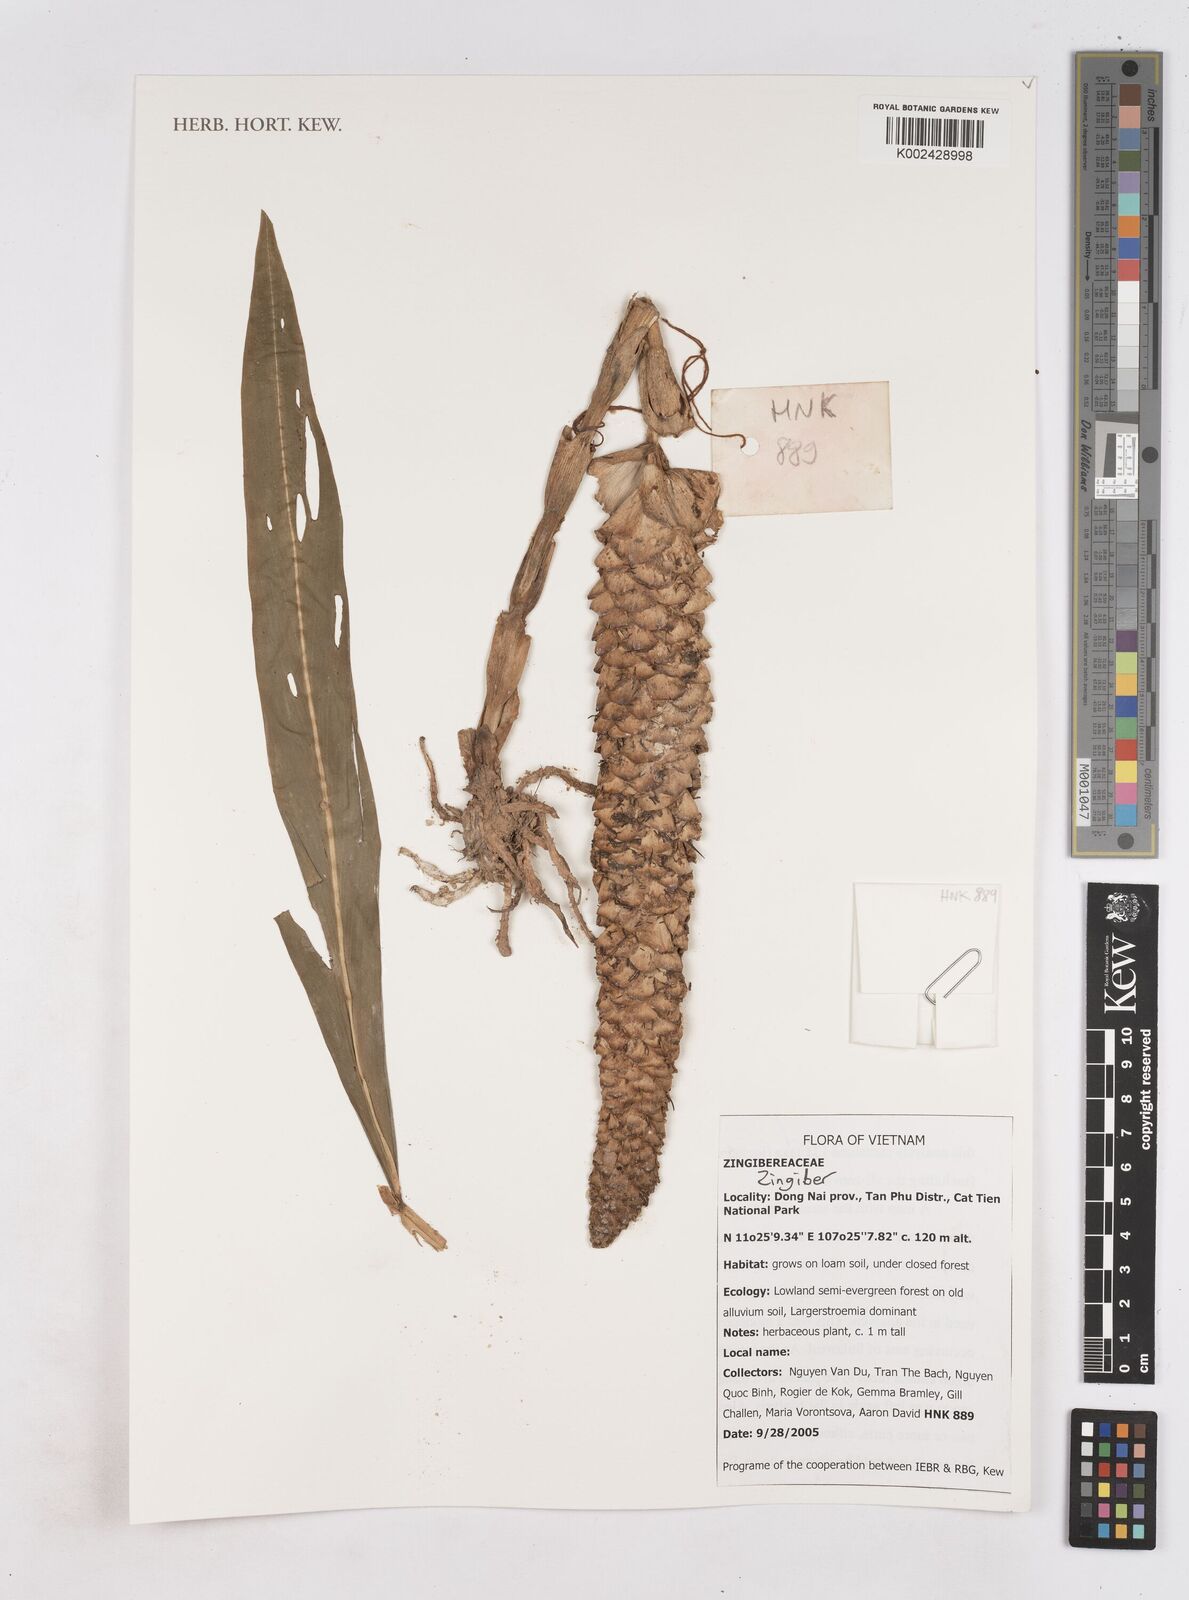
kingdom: Plantae
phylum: Tracheophyta
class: Liliopsida
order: Zingiberales
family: Zingiberaceae
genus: Zingiber
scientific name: Zingiber
